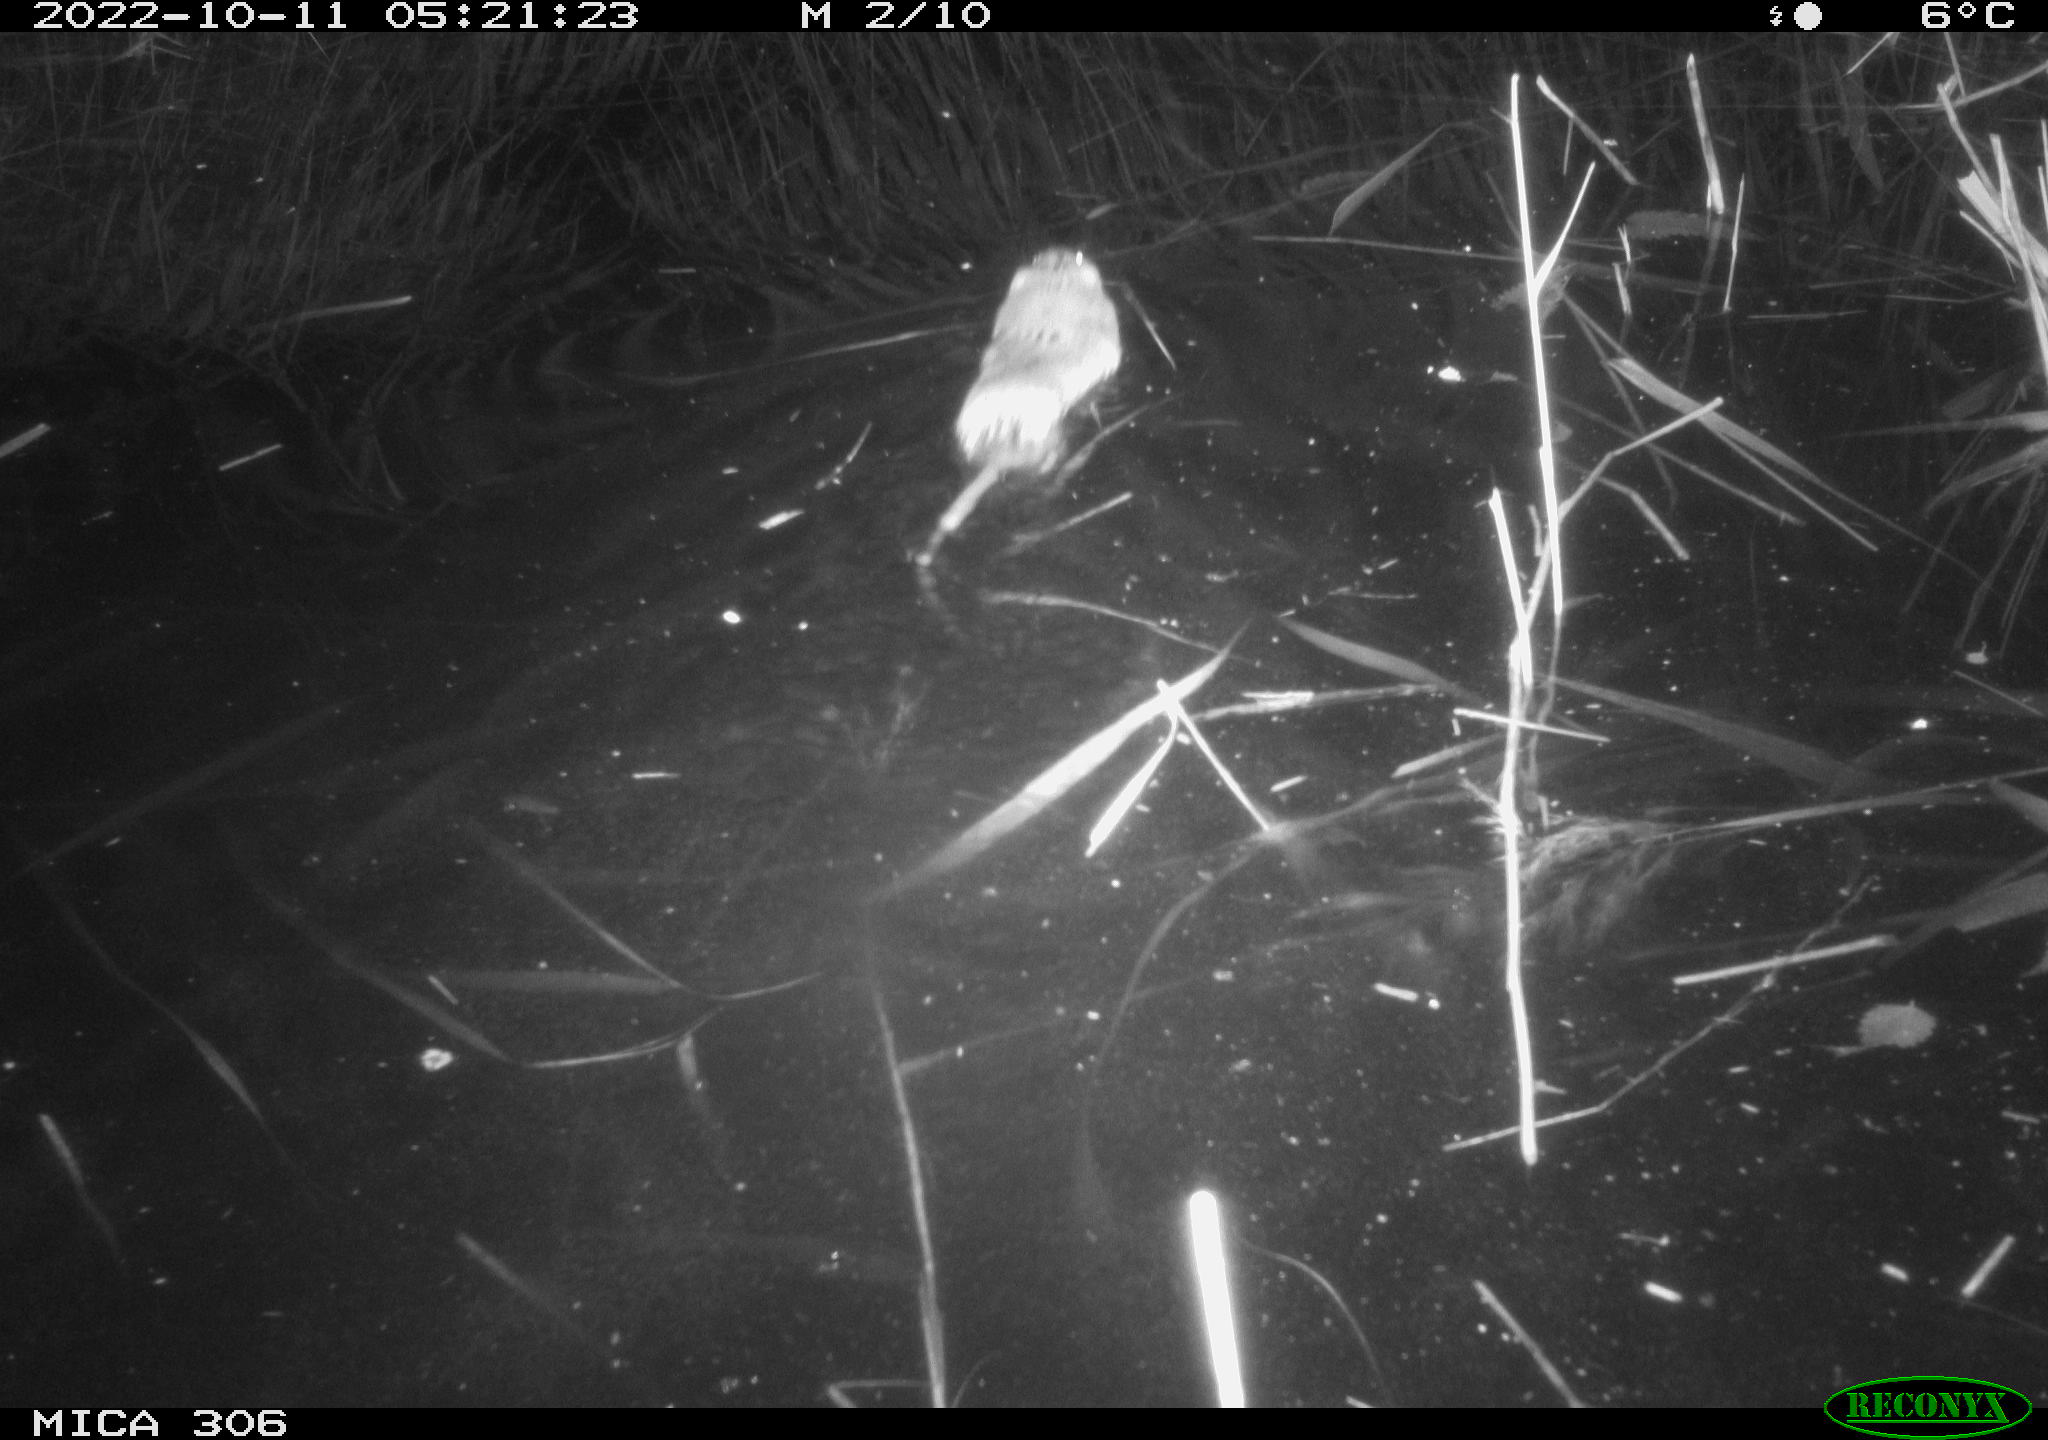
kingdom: Animalia
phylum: Chordata
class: Mammalia
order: Rodentia
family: Cricetidae
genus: Ondatra
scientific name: Ondatra zibethicus
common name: Muskrat
